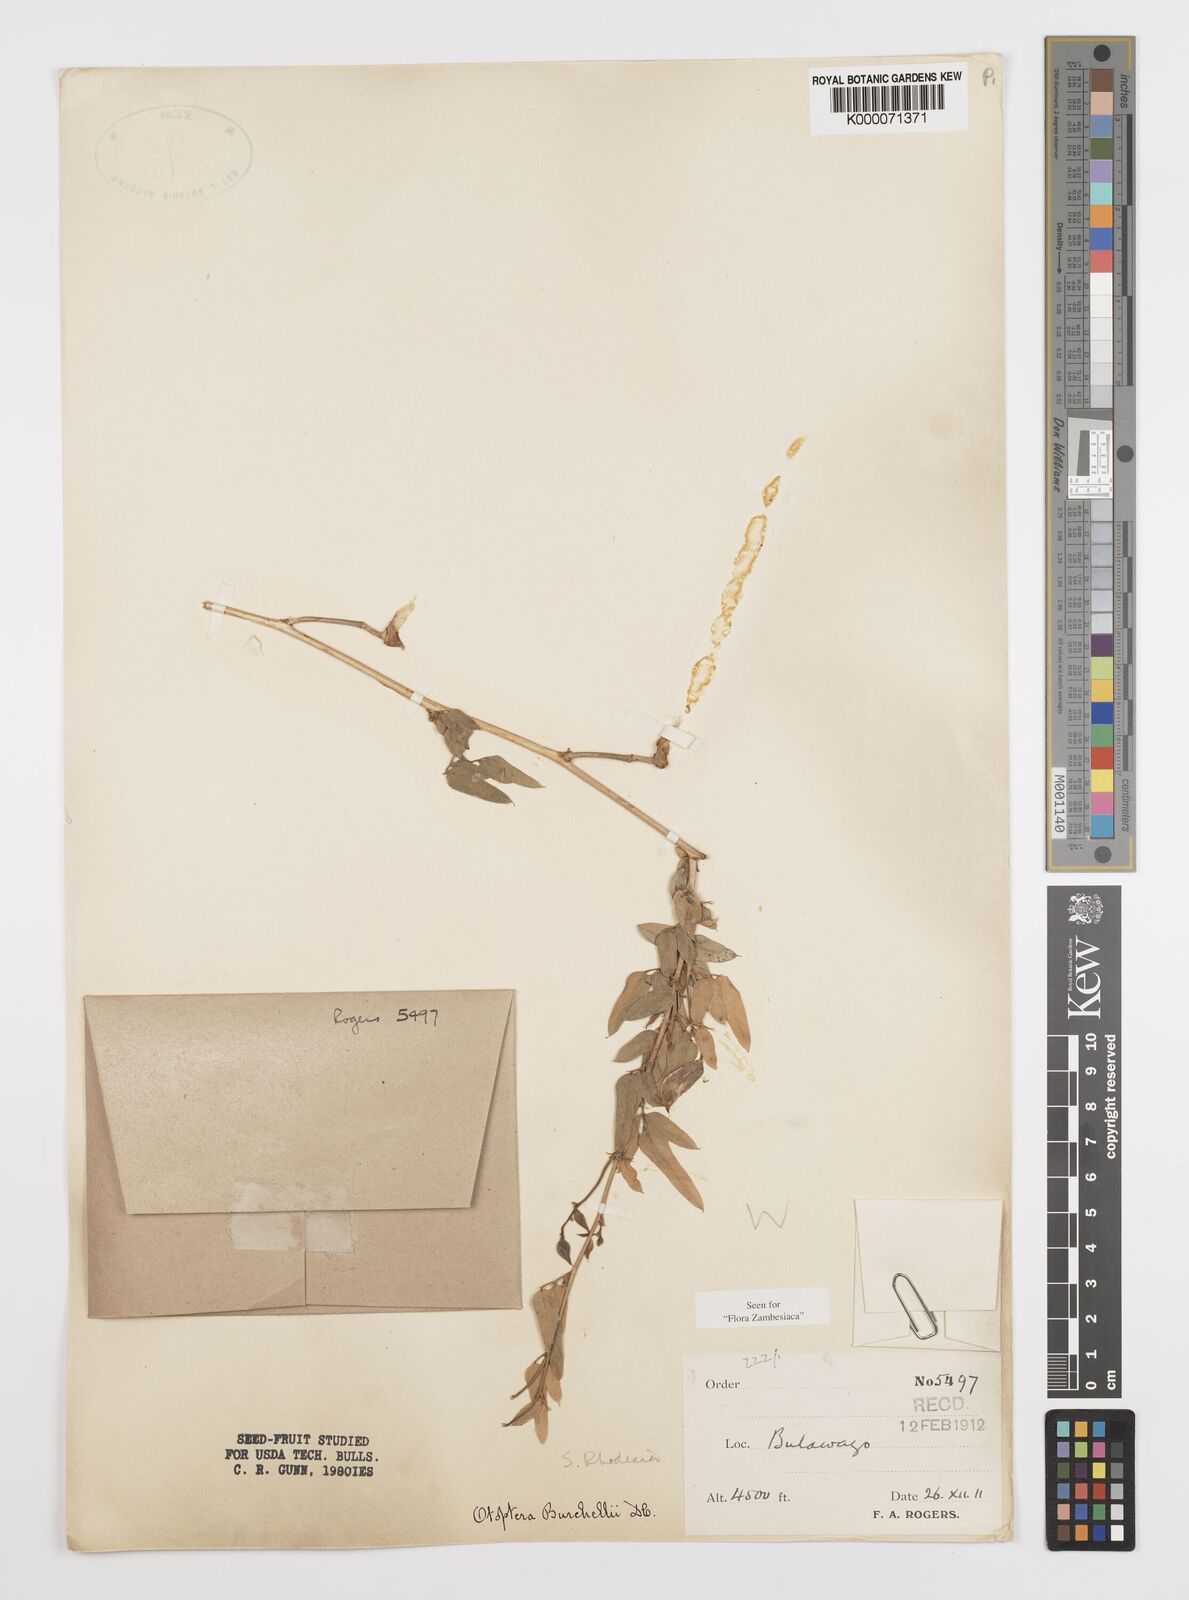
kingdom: Plantae
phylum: Tracheophyta
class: Magnoliopsida
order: Fabales
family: Fabaceae
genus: Otoptera
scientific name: Otoptera burchellii
